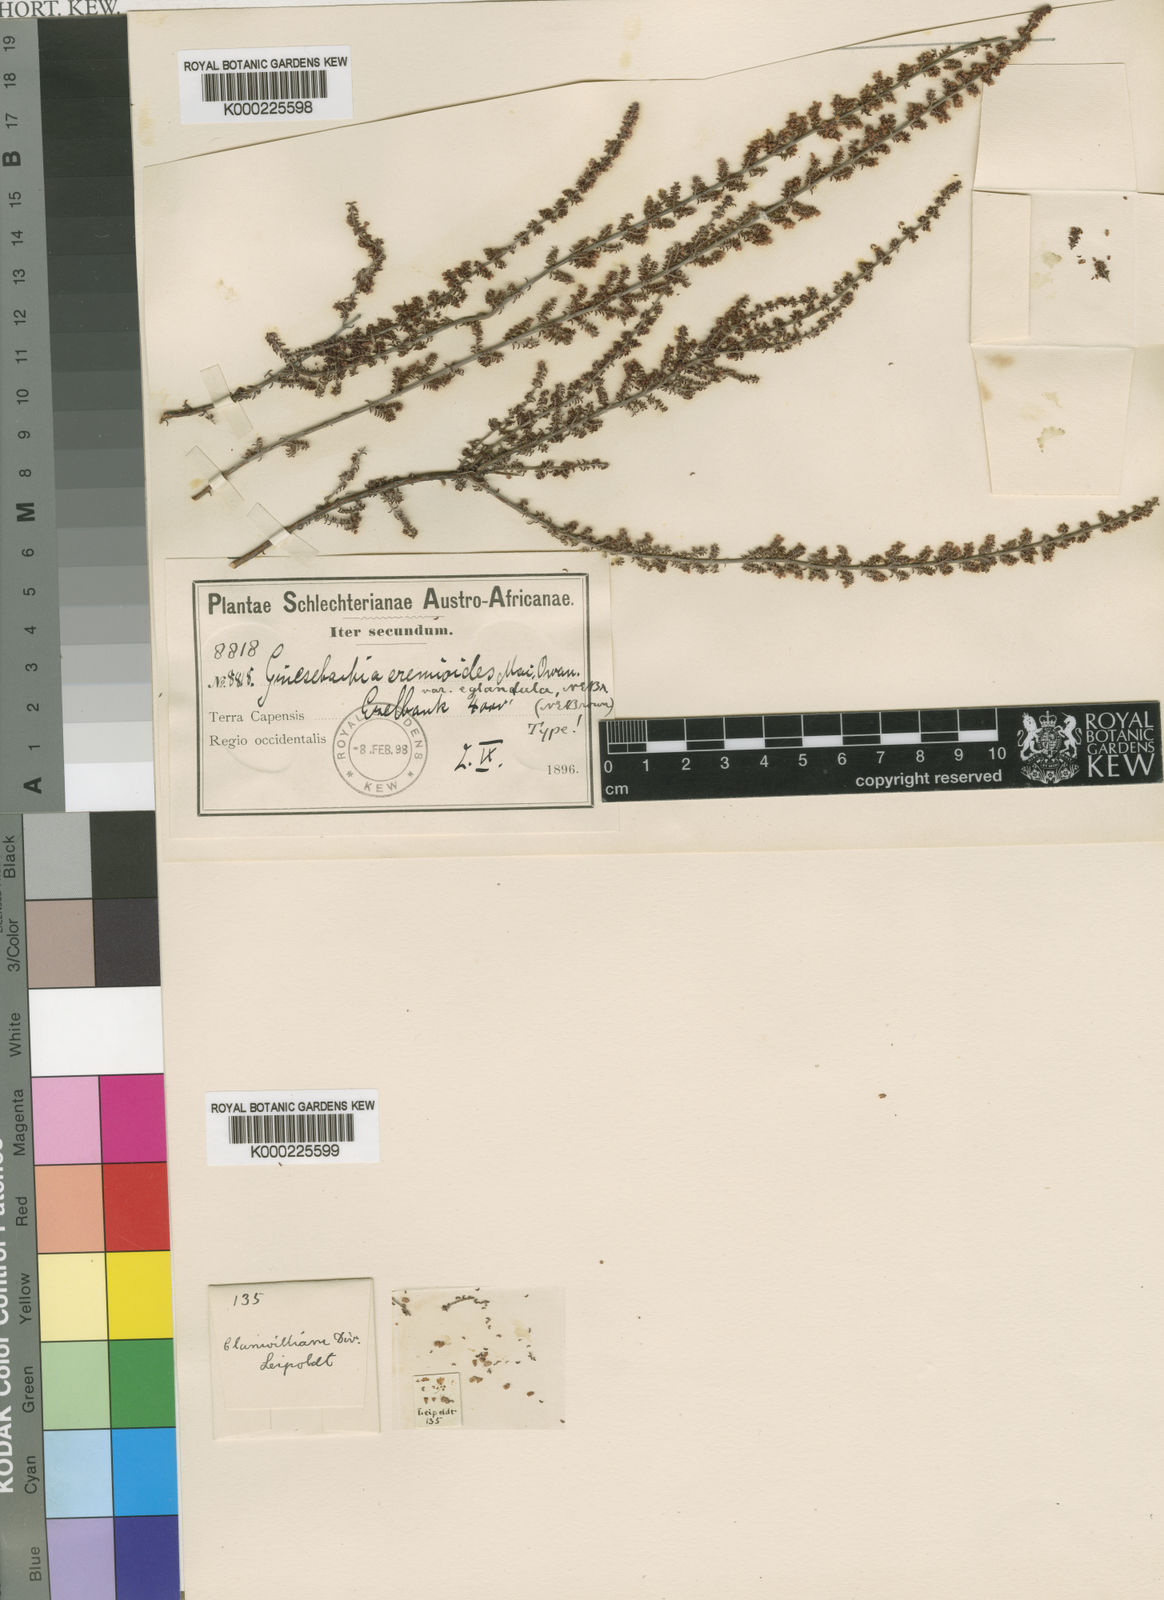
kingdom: Plantae
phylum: Tracheophyta
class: Magnoliopsida
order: Ericales
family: Ericaceae
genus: Erica
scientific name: Erica
